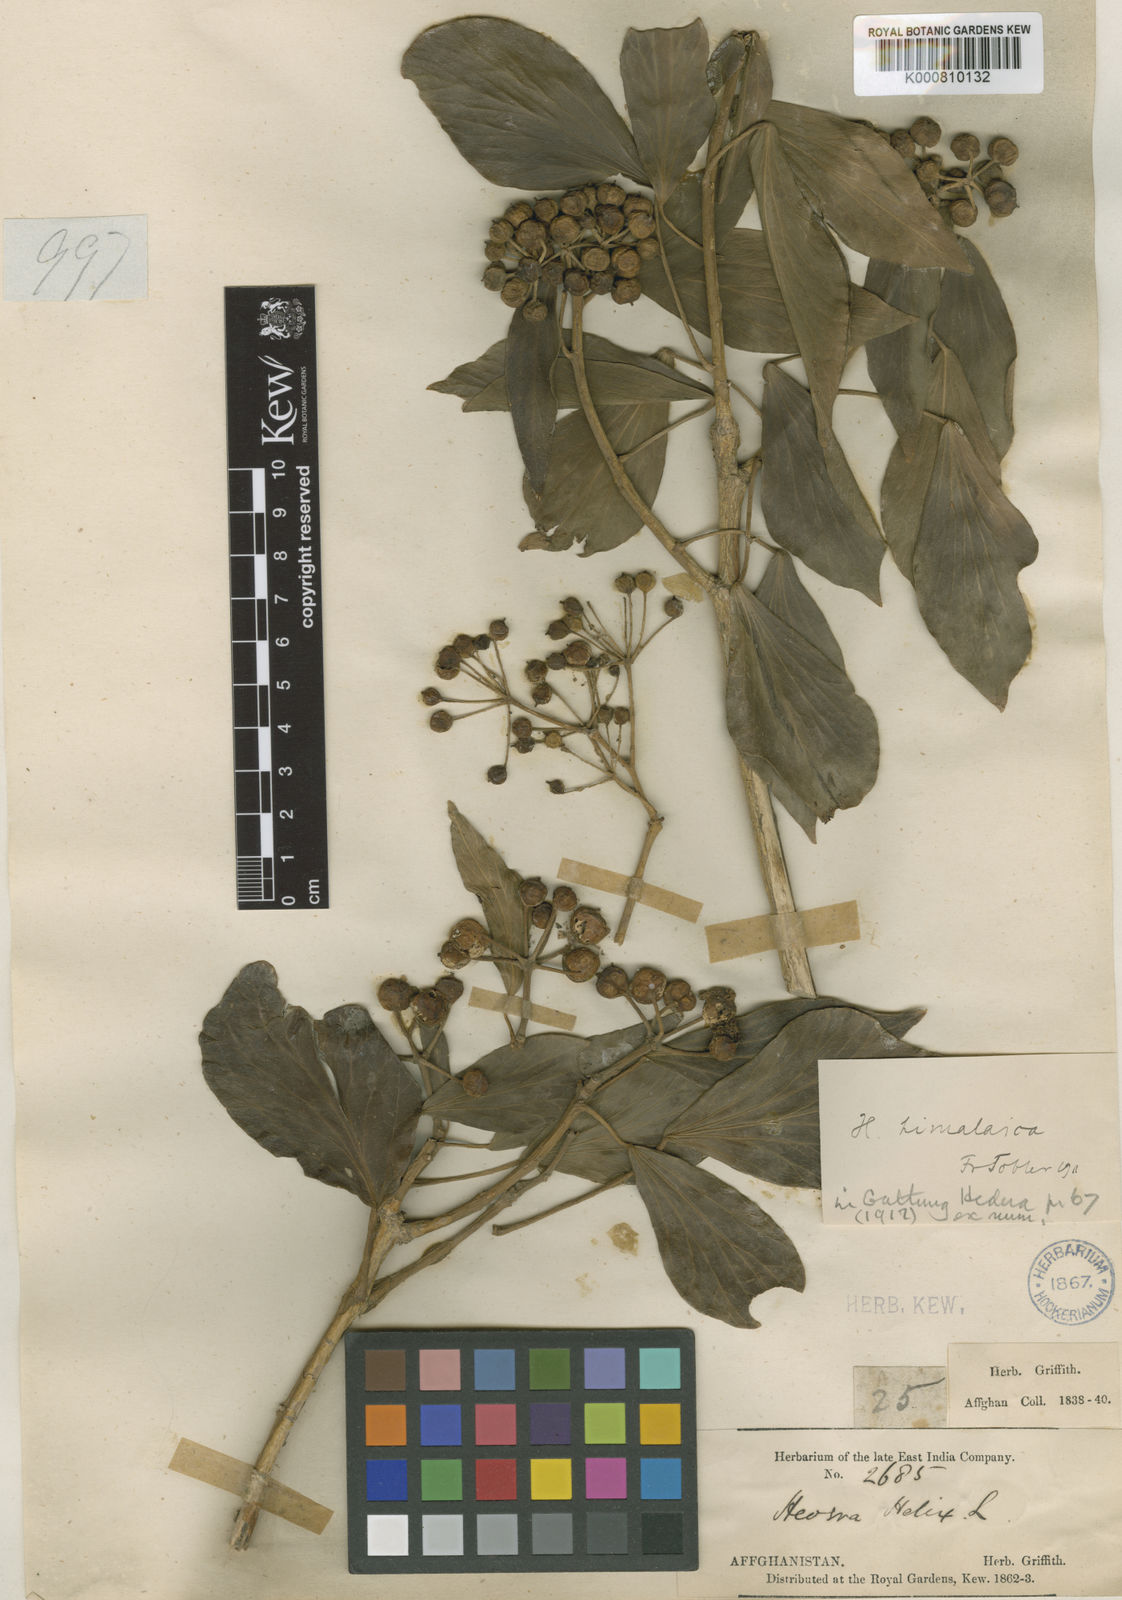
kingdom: Plantae
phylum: Tracheophyta
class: Magnoliopsida
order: Apiales
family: Araliaceae
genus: Hedera
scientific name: Hedera nepalensis
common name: Himalayan ivy
